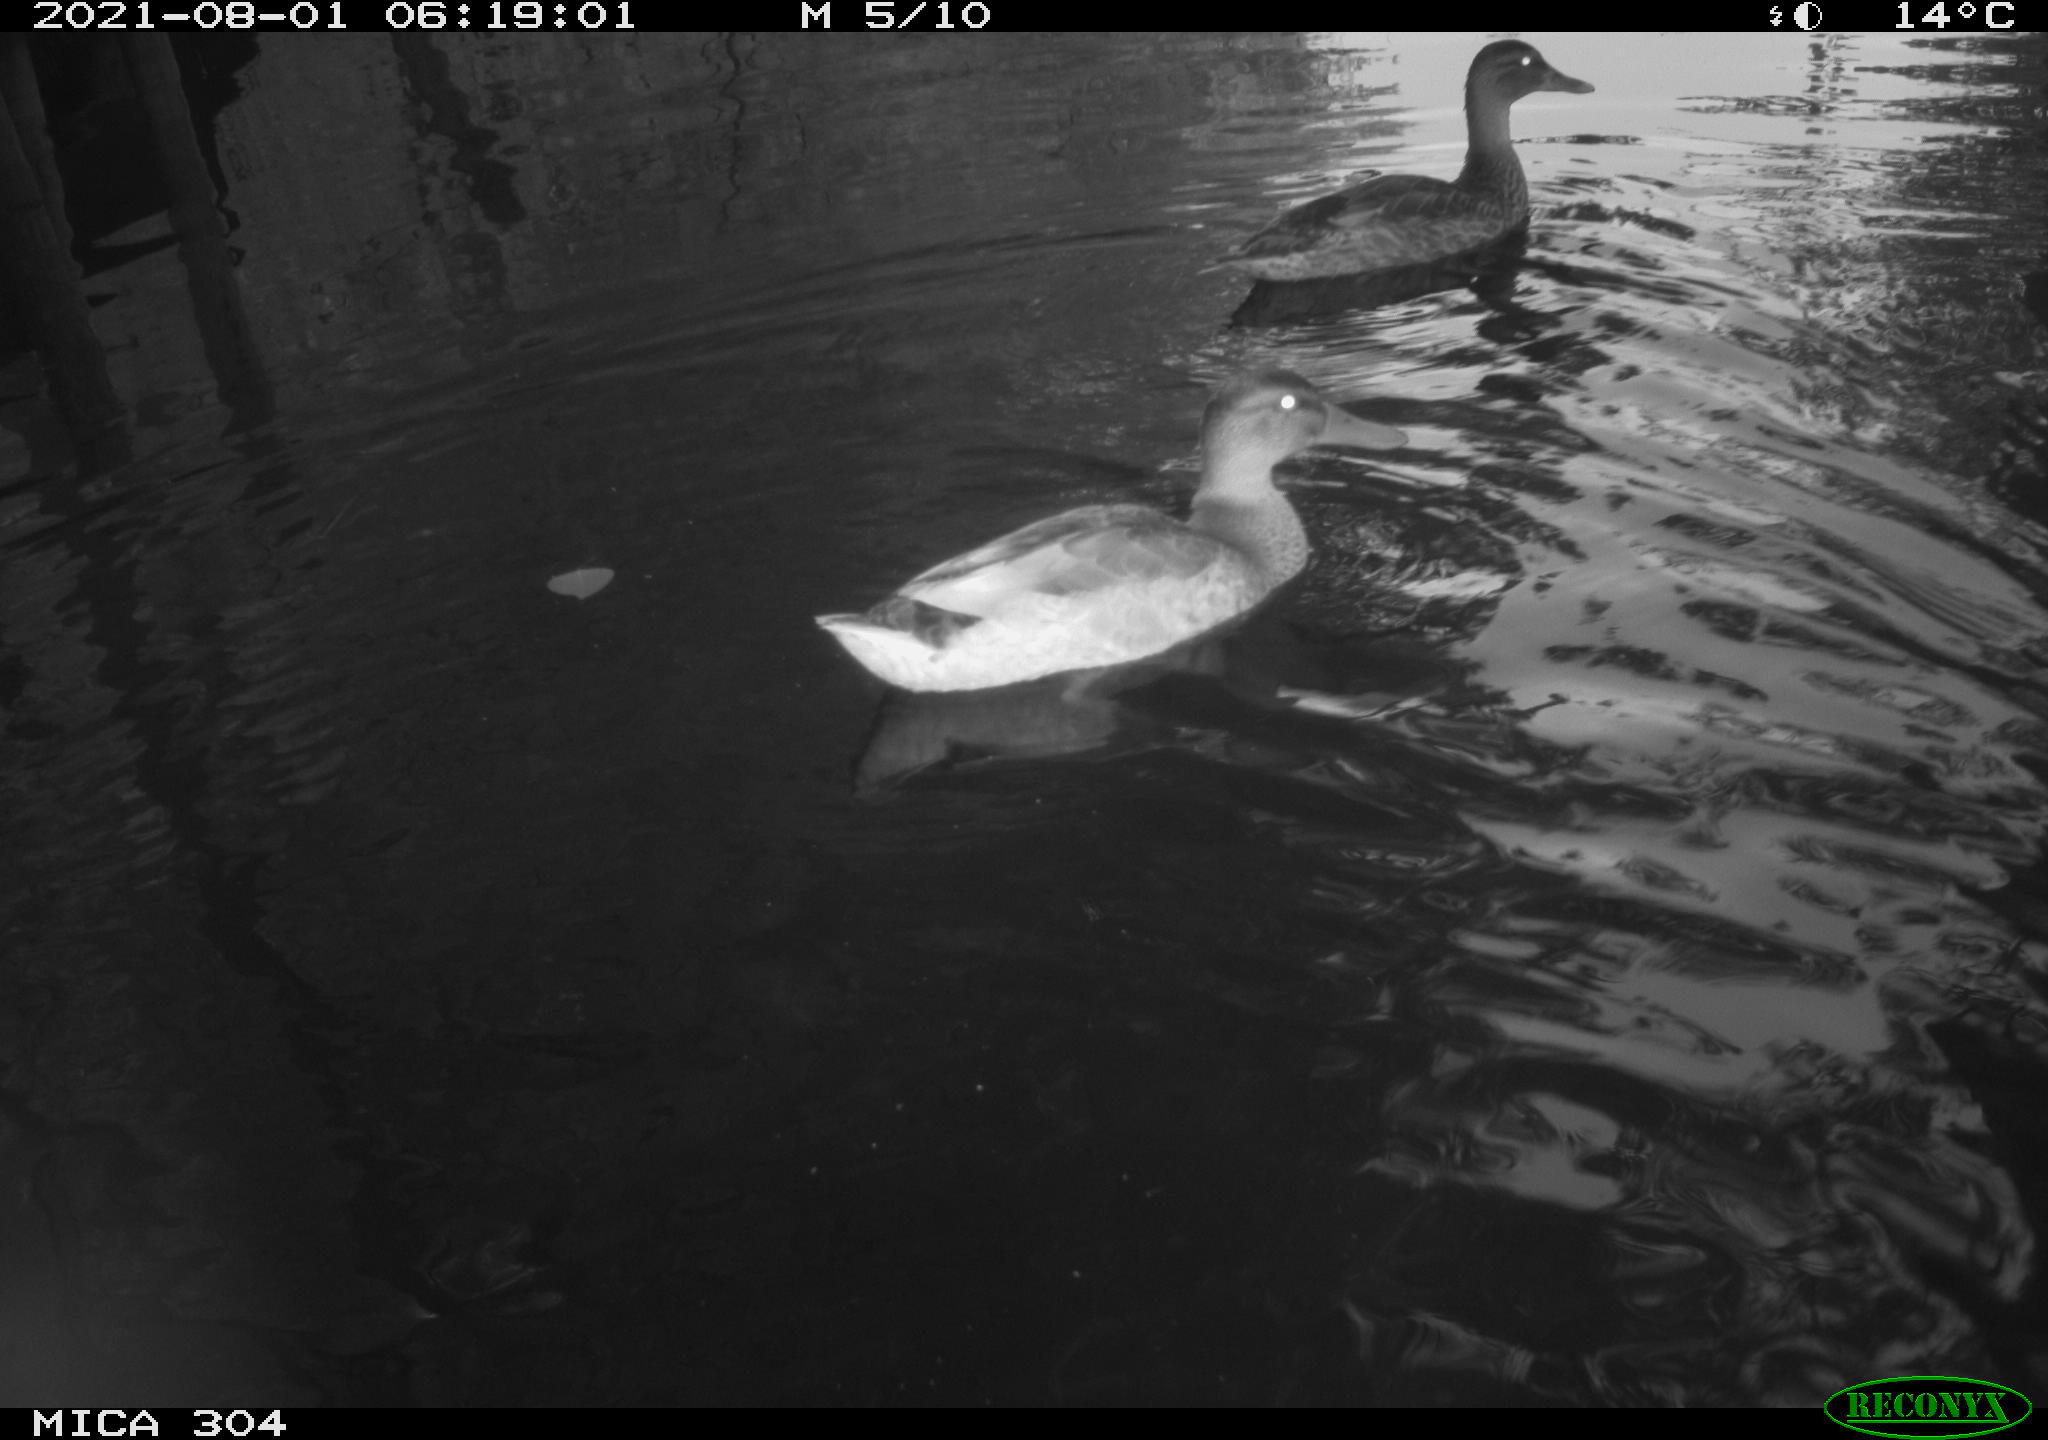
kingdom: Animalia
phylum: Chordata
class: Aves
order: Anseriformes
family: Anatidae
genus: Anas
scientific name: Anas platyrhynchos
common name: Mallard
